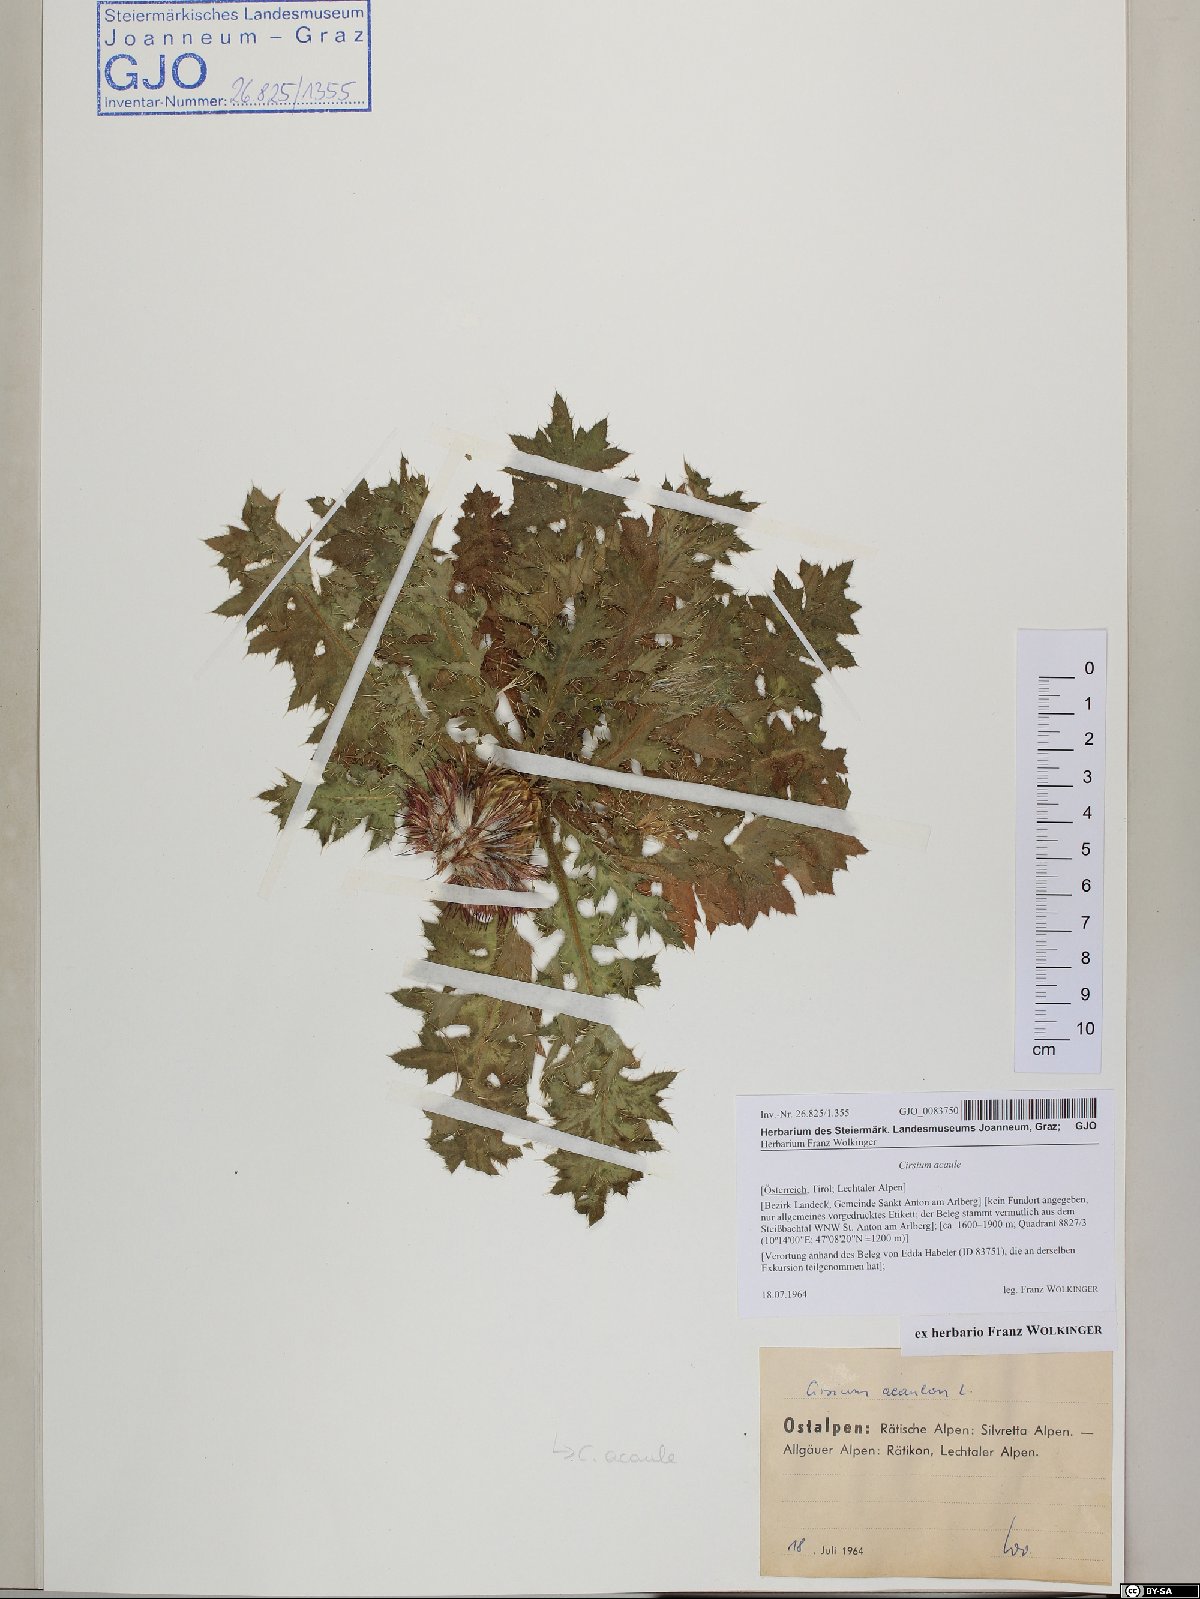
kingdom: Plantae
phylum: Tracheophyta
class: Magnoliopsida
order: Asterales
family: Asteraceae
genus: Cirsium
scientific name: Cirsium acaulon
